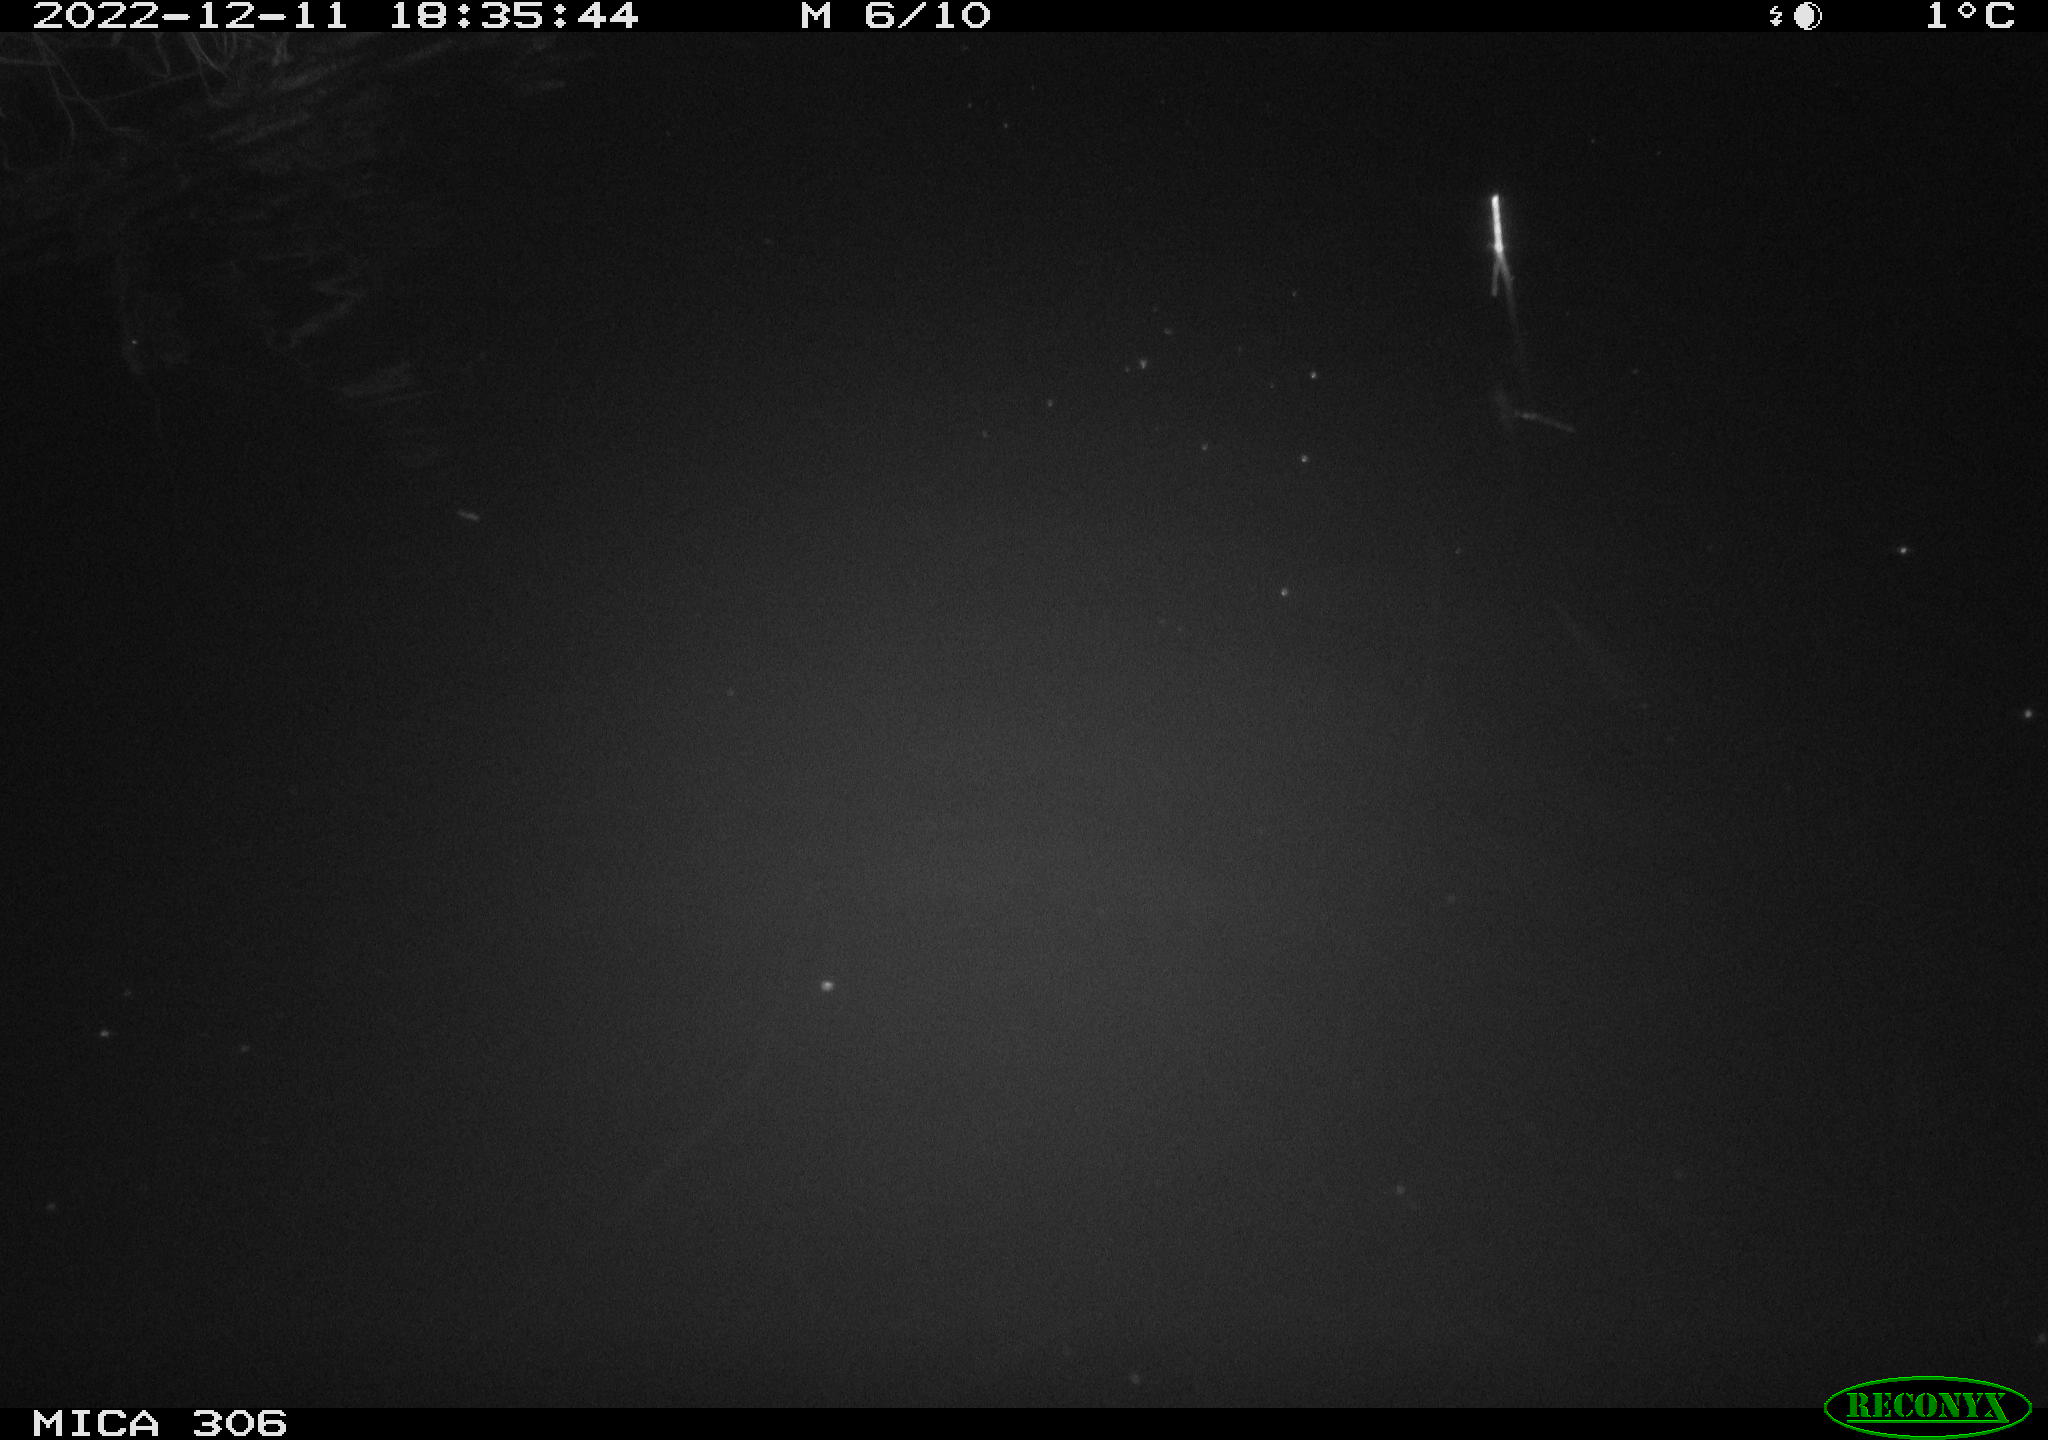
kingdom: Animalia
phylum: Chordata
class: Mammalia
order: Rodentia
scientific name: Rodentia
